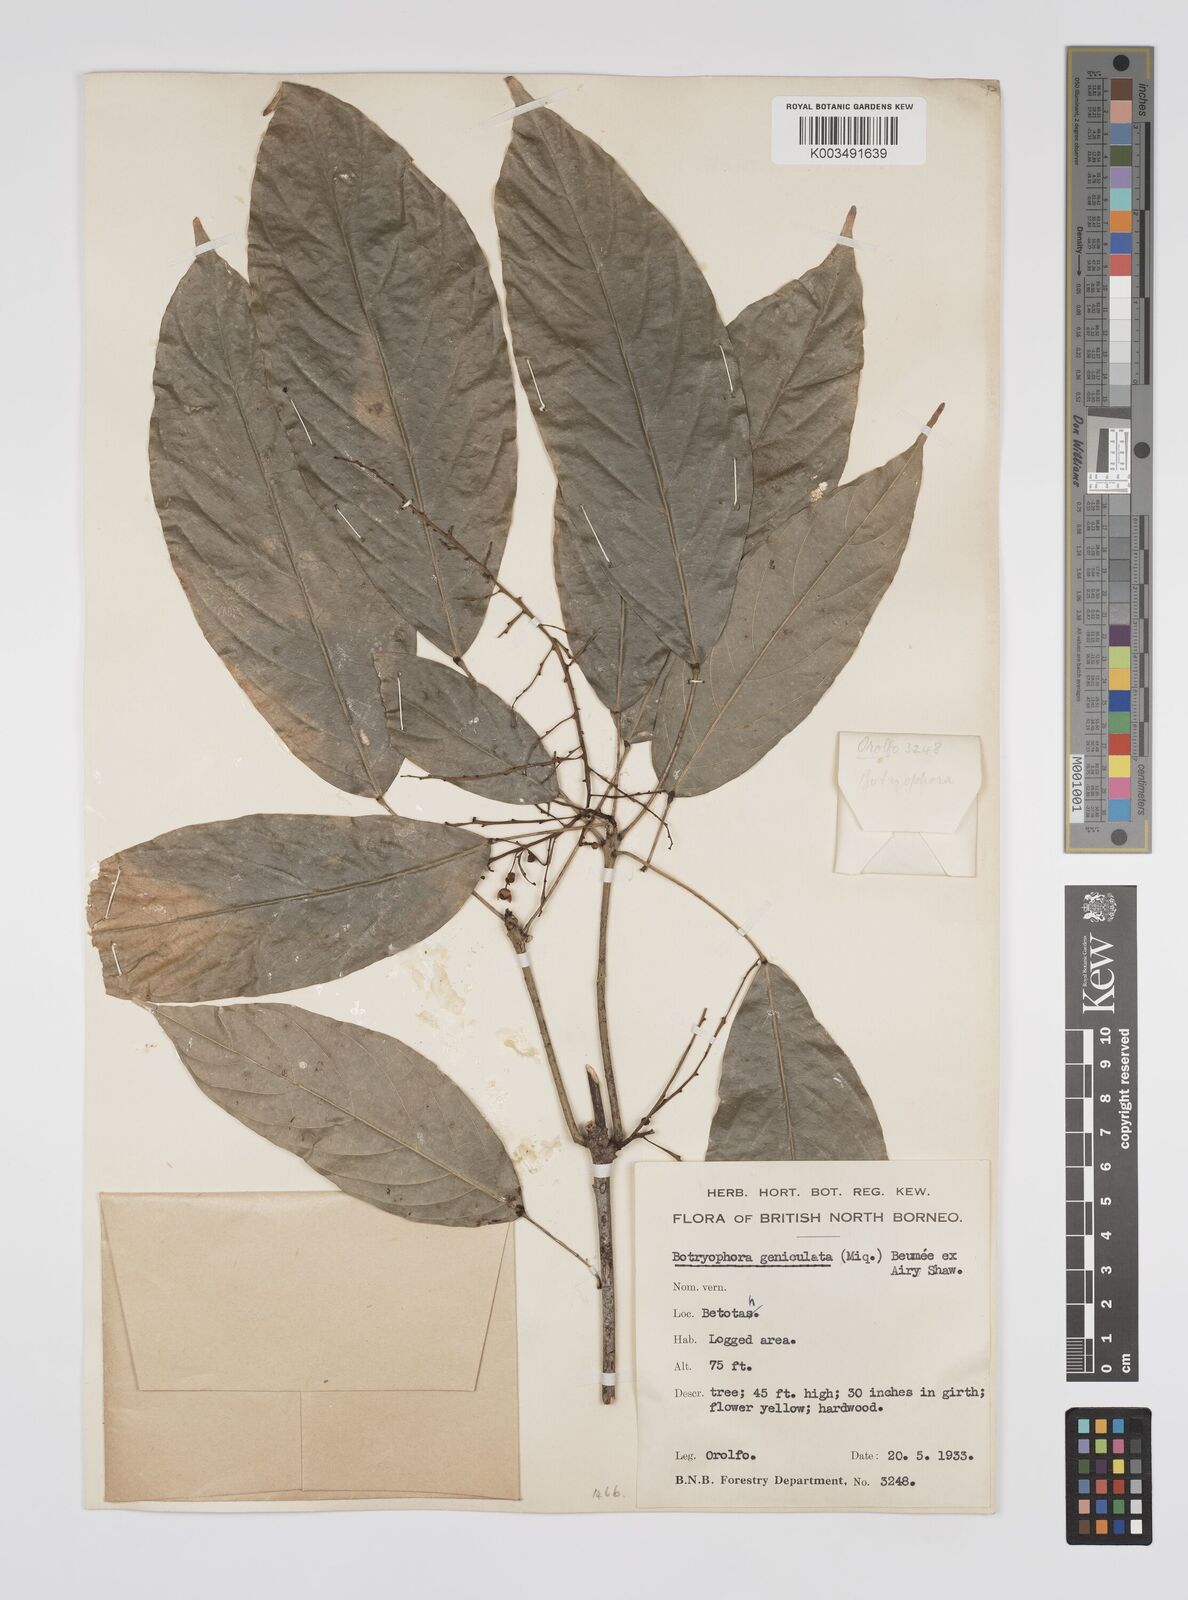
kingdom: Plantae
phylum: Tracheophyta
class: Magnoliopsida
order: Malpighiales
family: Euphorbiaceae
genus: Botryophora
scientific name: Botryophora geniculata
